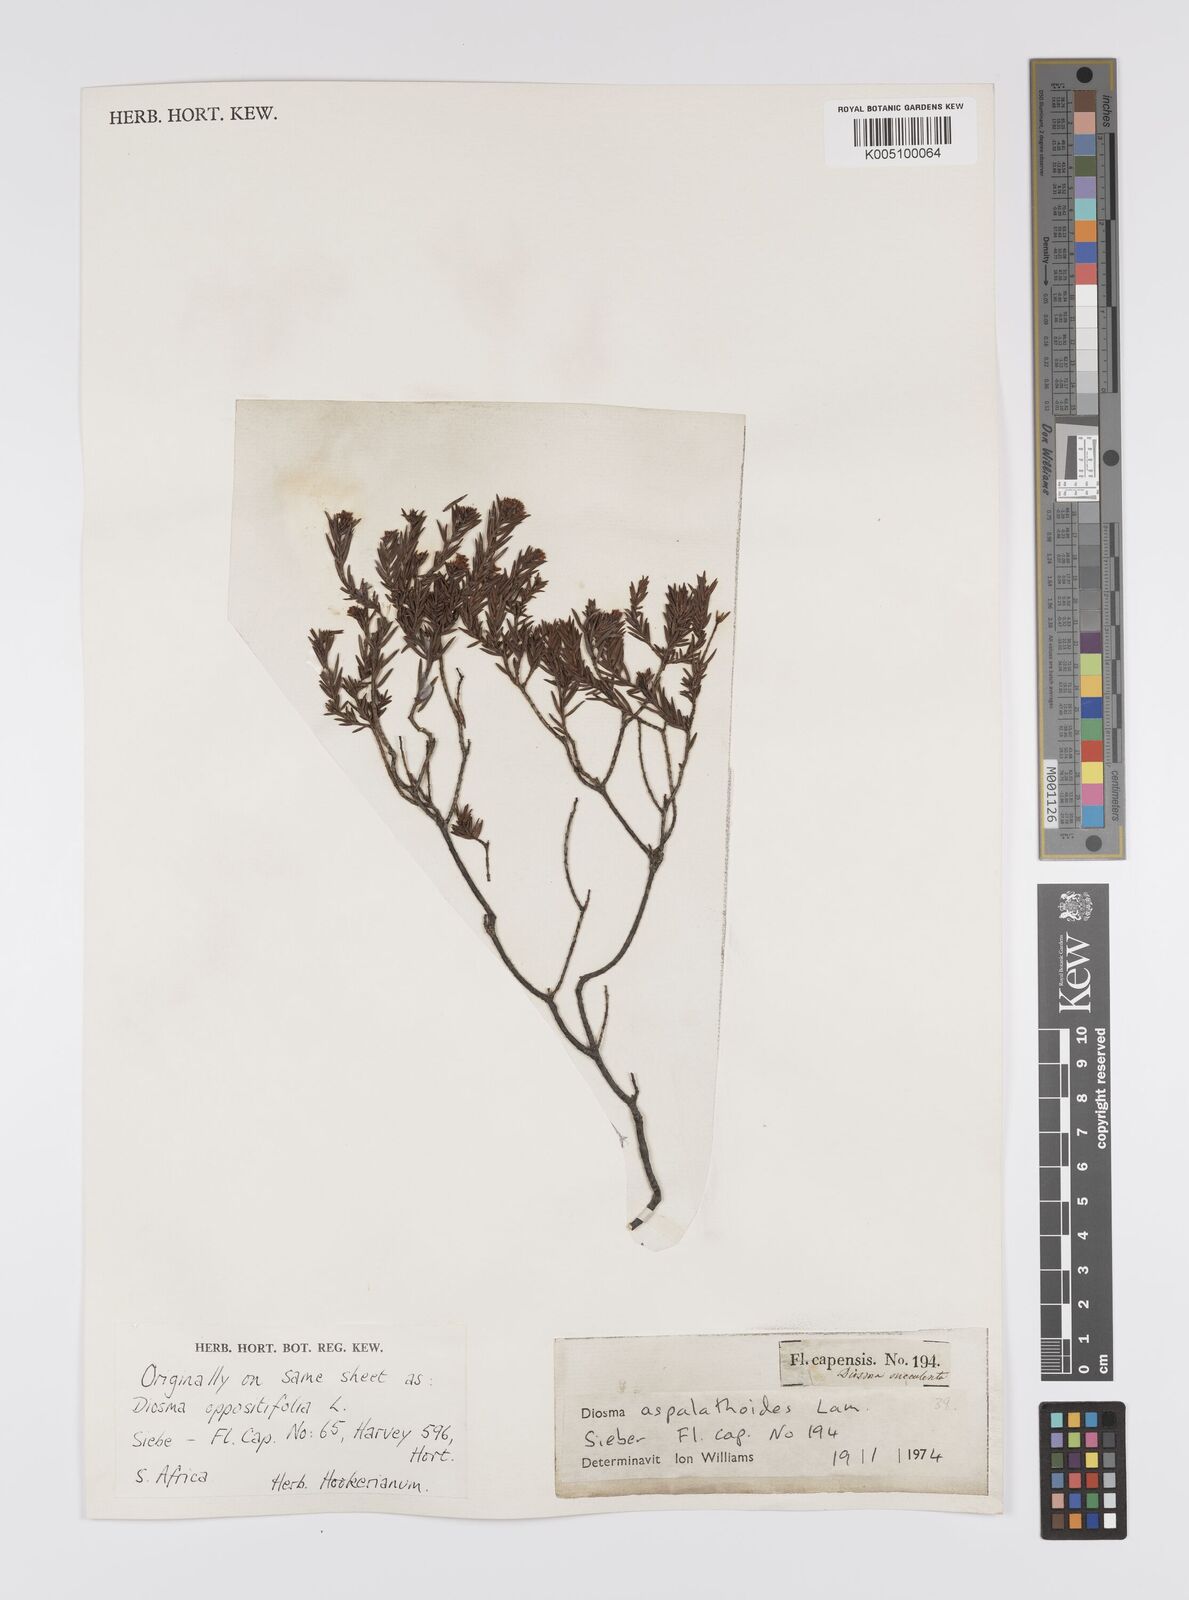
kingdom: Plantae
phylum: Tracheophyta
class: Magnoliopsida
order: Sapindales
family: Rutaceae
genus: Diosma
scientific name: Diosma aspalathoides
